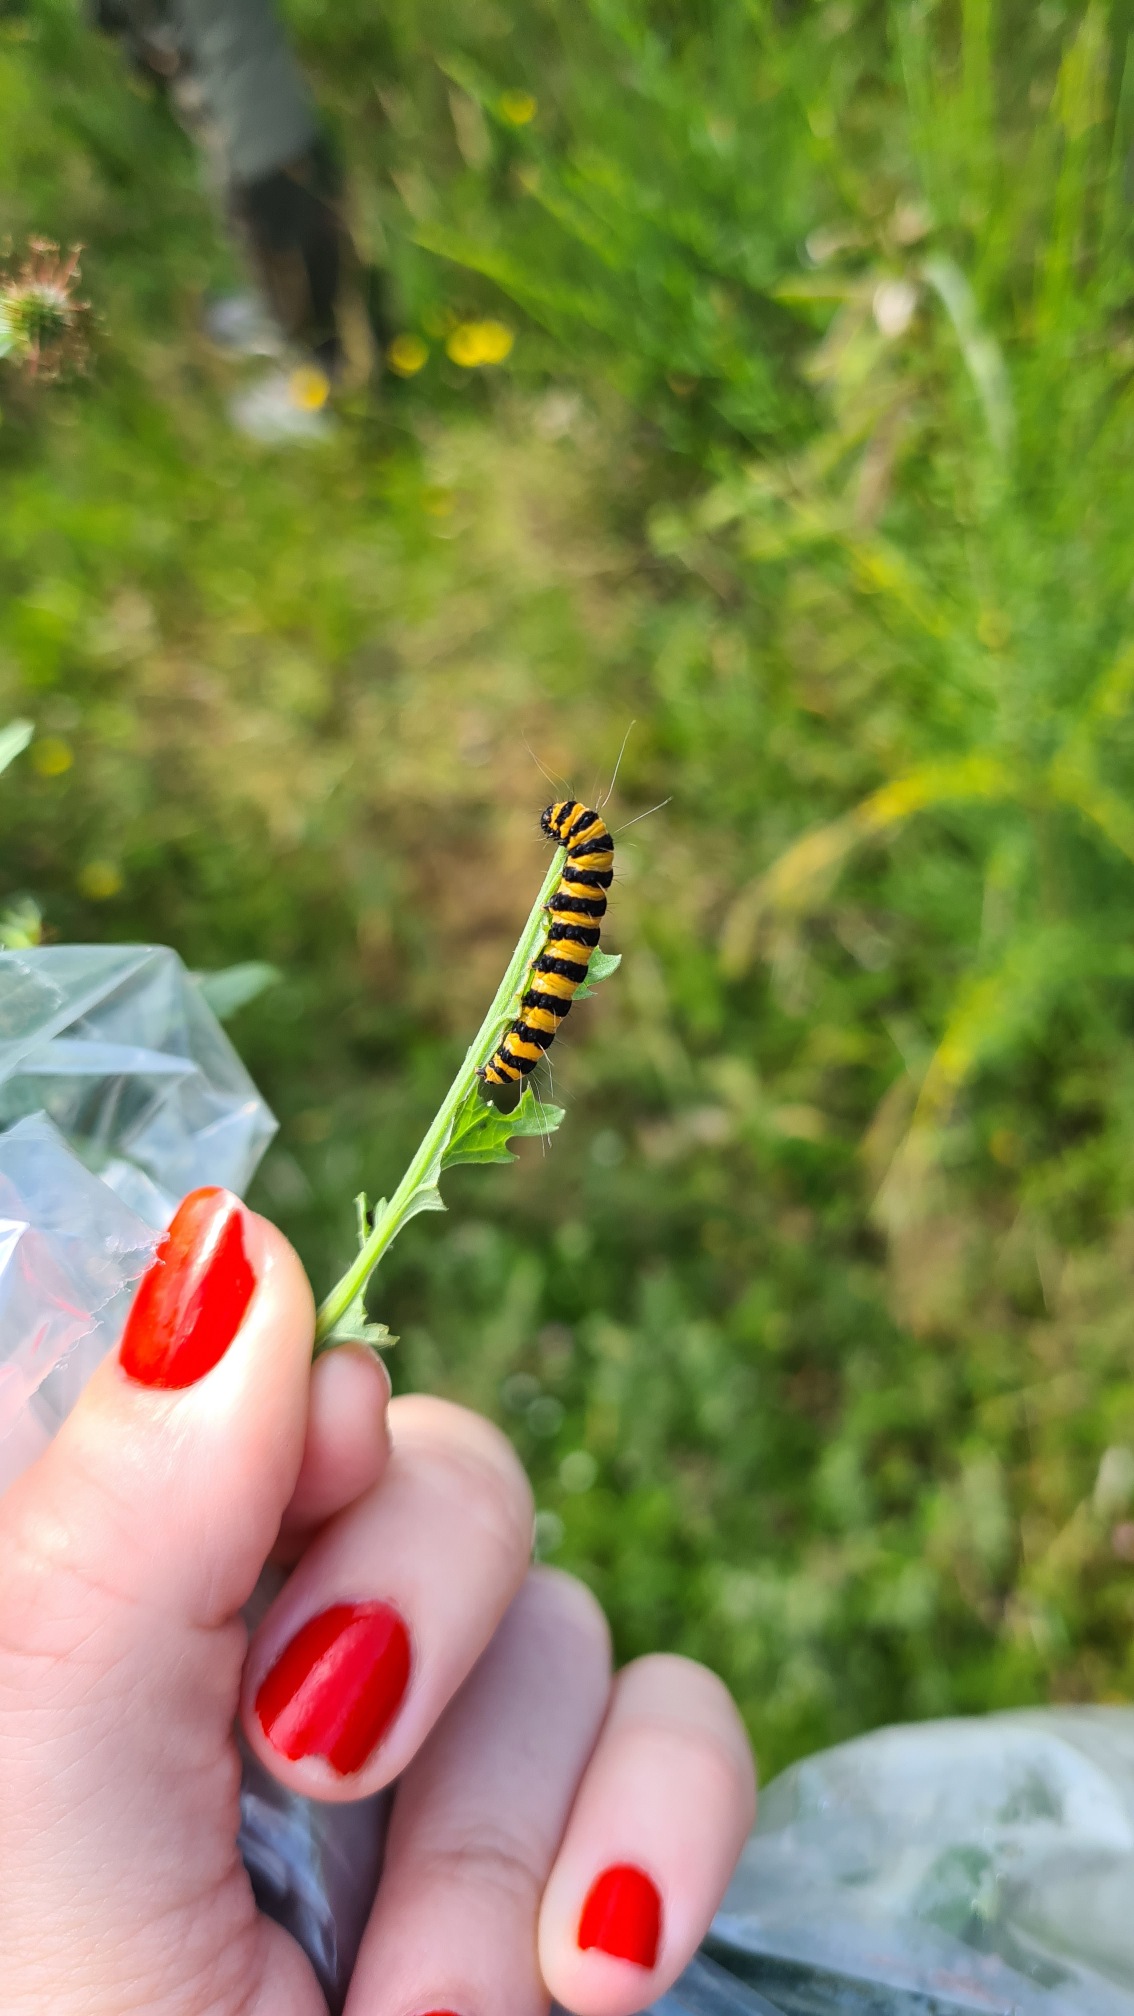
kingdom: Animalia
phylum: Arthropoda
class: Insecta
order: Lepidoptera
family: Erebidae
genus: Tyria
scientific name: Tyria jacobaeae
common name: Blodplet
